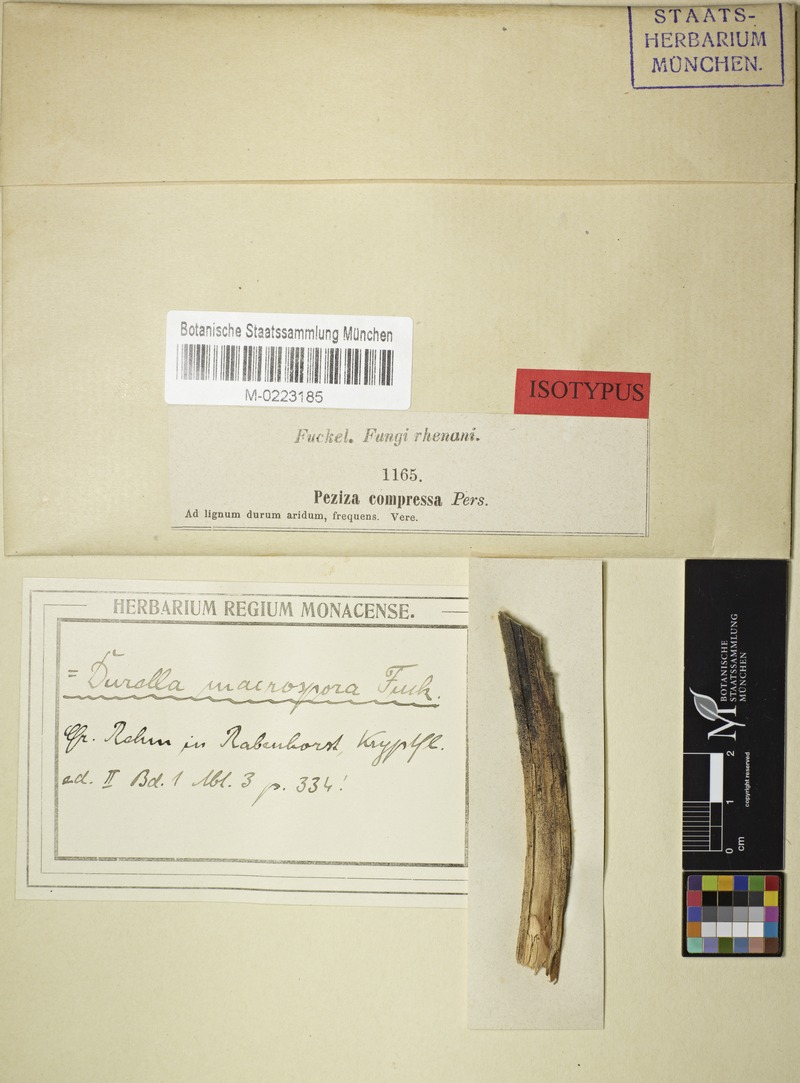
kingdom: Fungi
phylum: Ascomycota
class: Leotiomycetes
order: Helotiales
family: Helotiaceae
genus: Durella
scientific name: Durella macrospora
